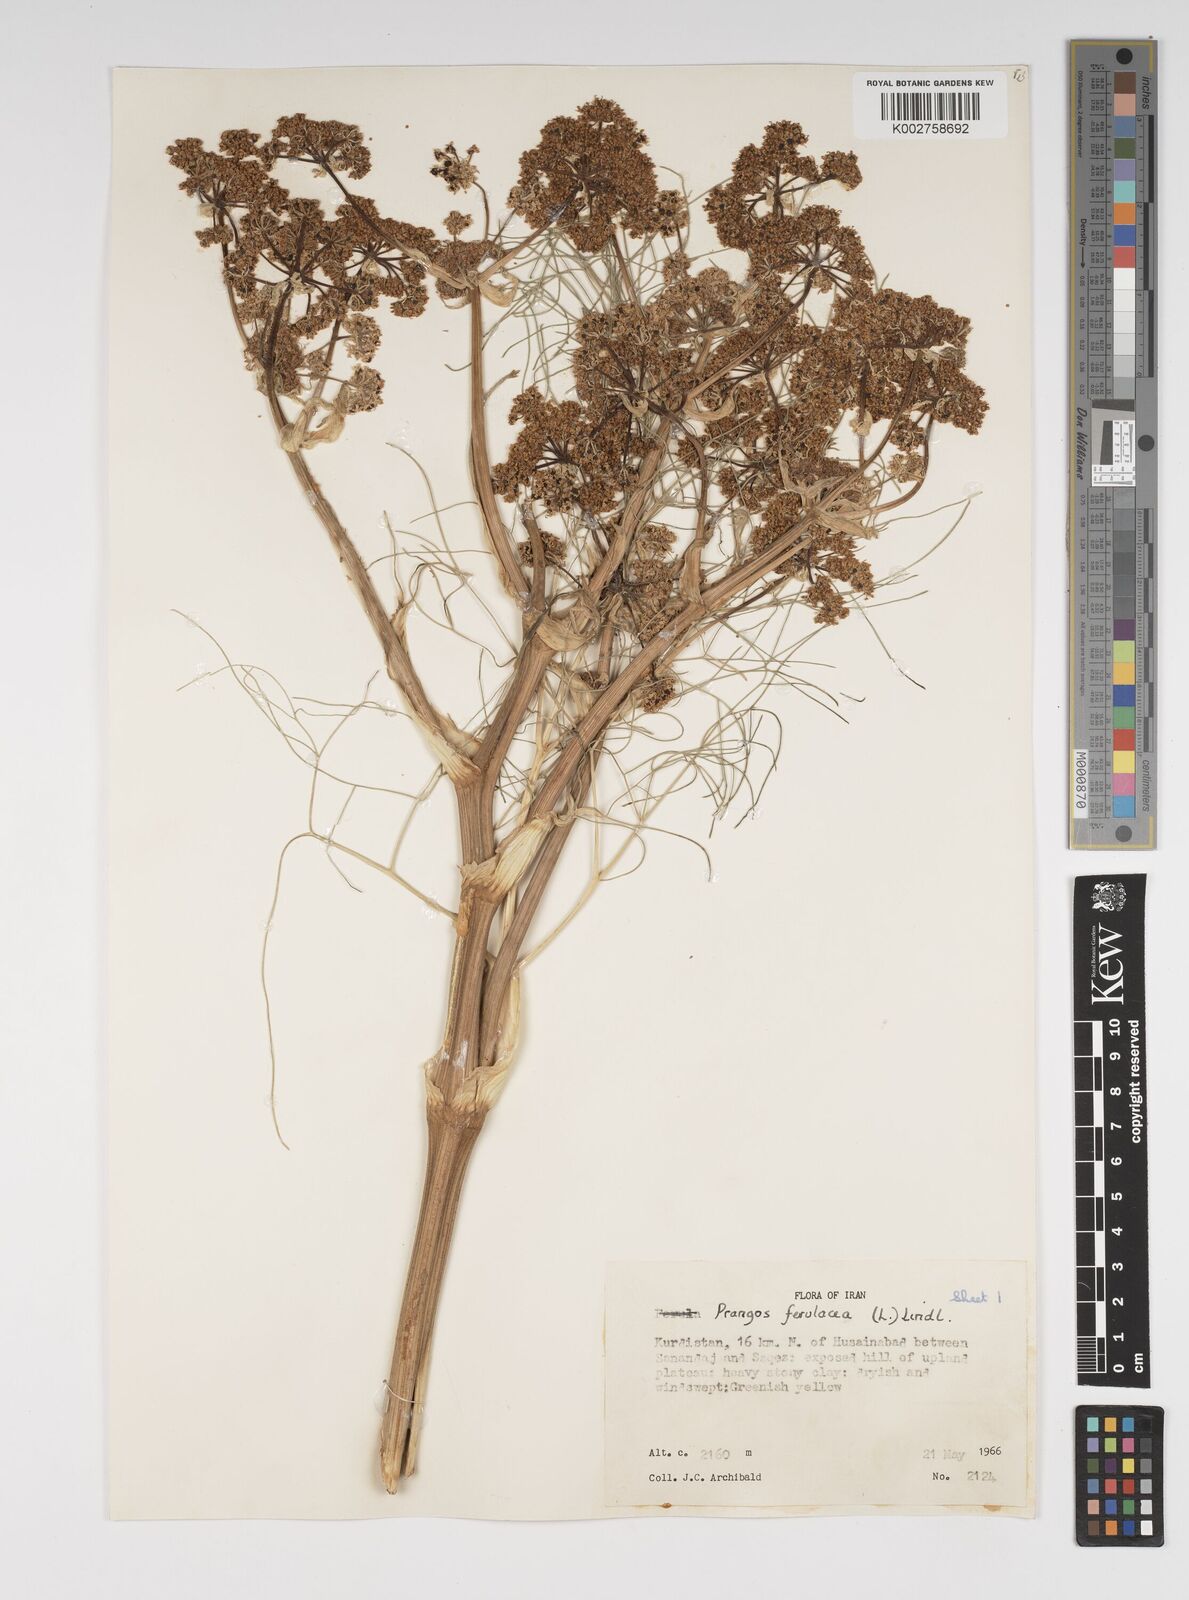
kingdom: Plantae
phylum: Tracheophyta
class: Magnoliopsida
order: Apiales
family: Apiaceae
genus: Prangos
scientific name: Prangos ferulacea
